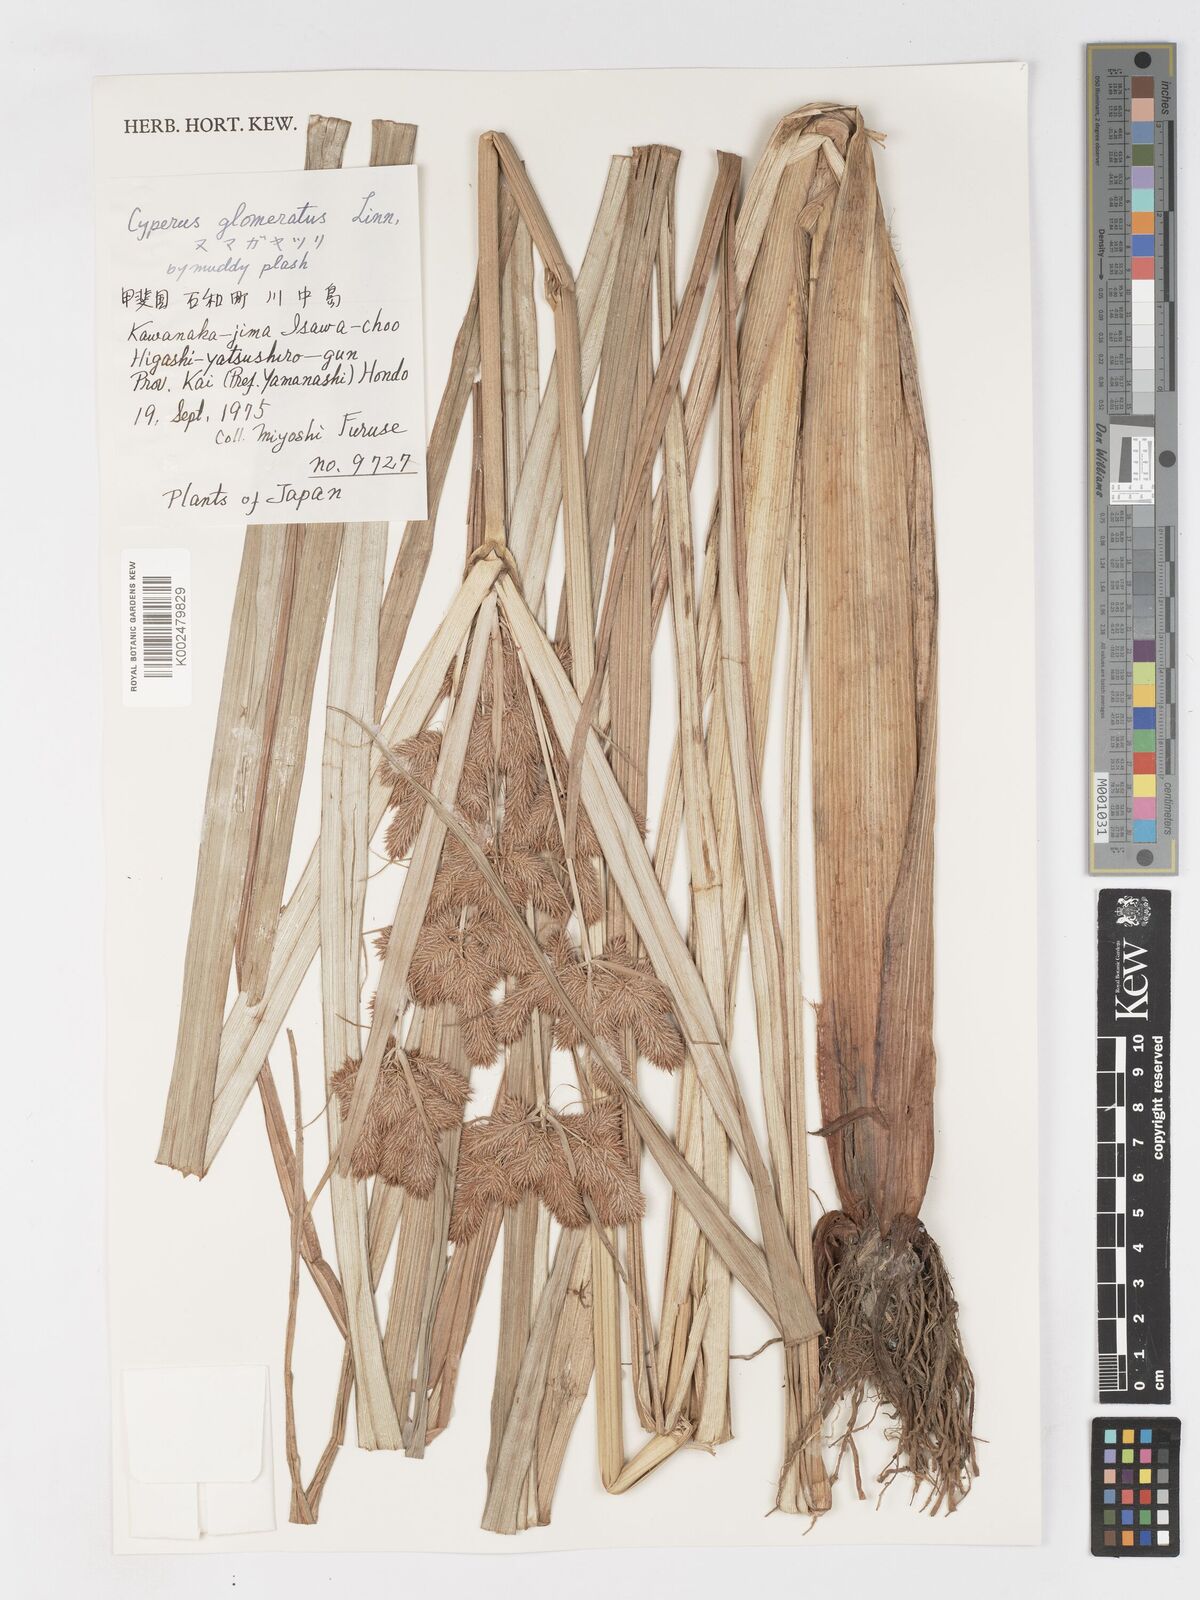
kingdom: Plantae
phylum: Tracheophyta
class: Liliopsida
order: Poales
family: Cyperaceae
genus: Cyperus
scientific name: Cyperus glomeratus
